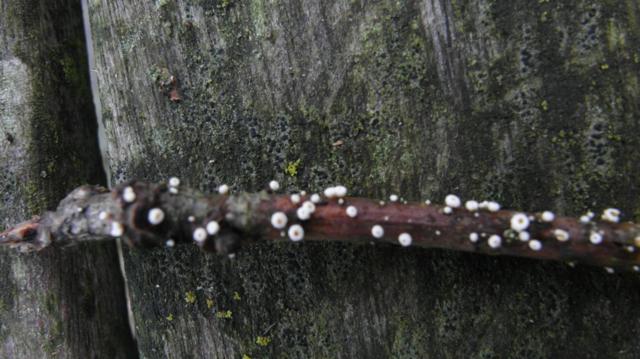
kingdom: Fungi
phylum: Ascomycota
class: Leotiomycetes
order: Helotiales
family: Lachnaceae
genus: Capitotricha
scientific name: Capitotricha bicolor
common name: prægtig frynseskive
